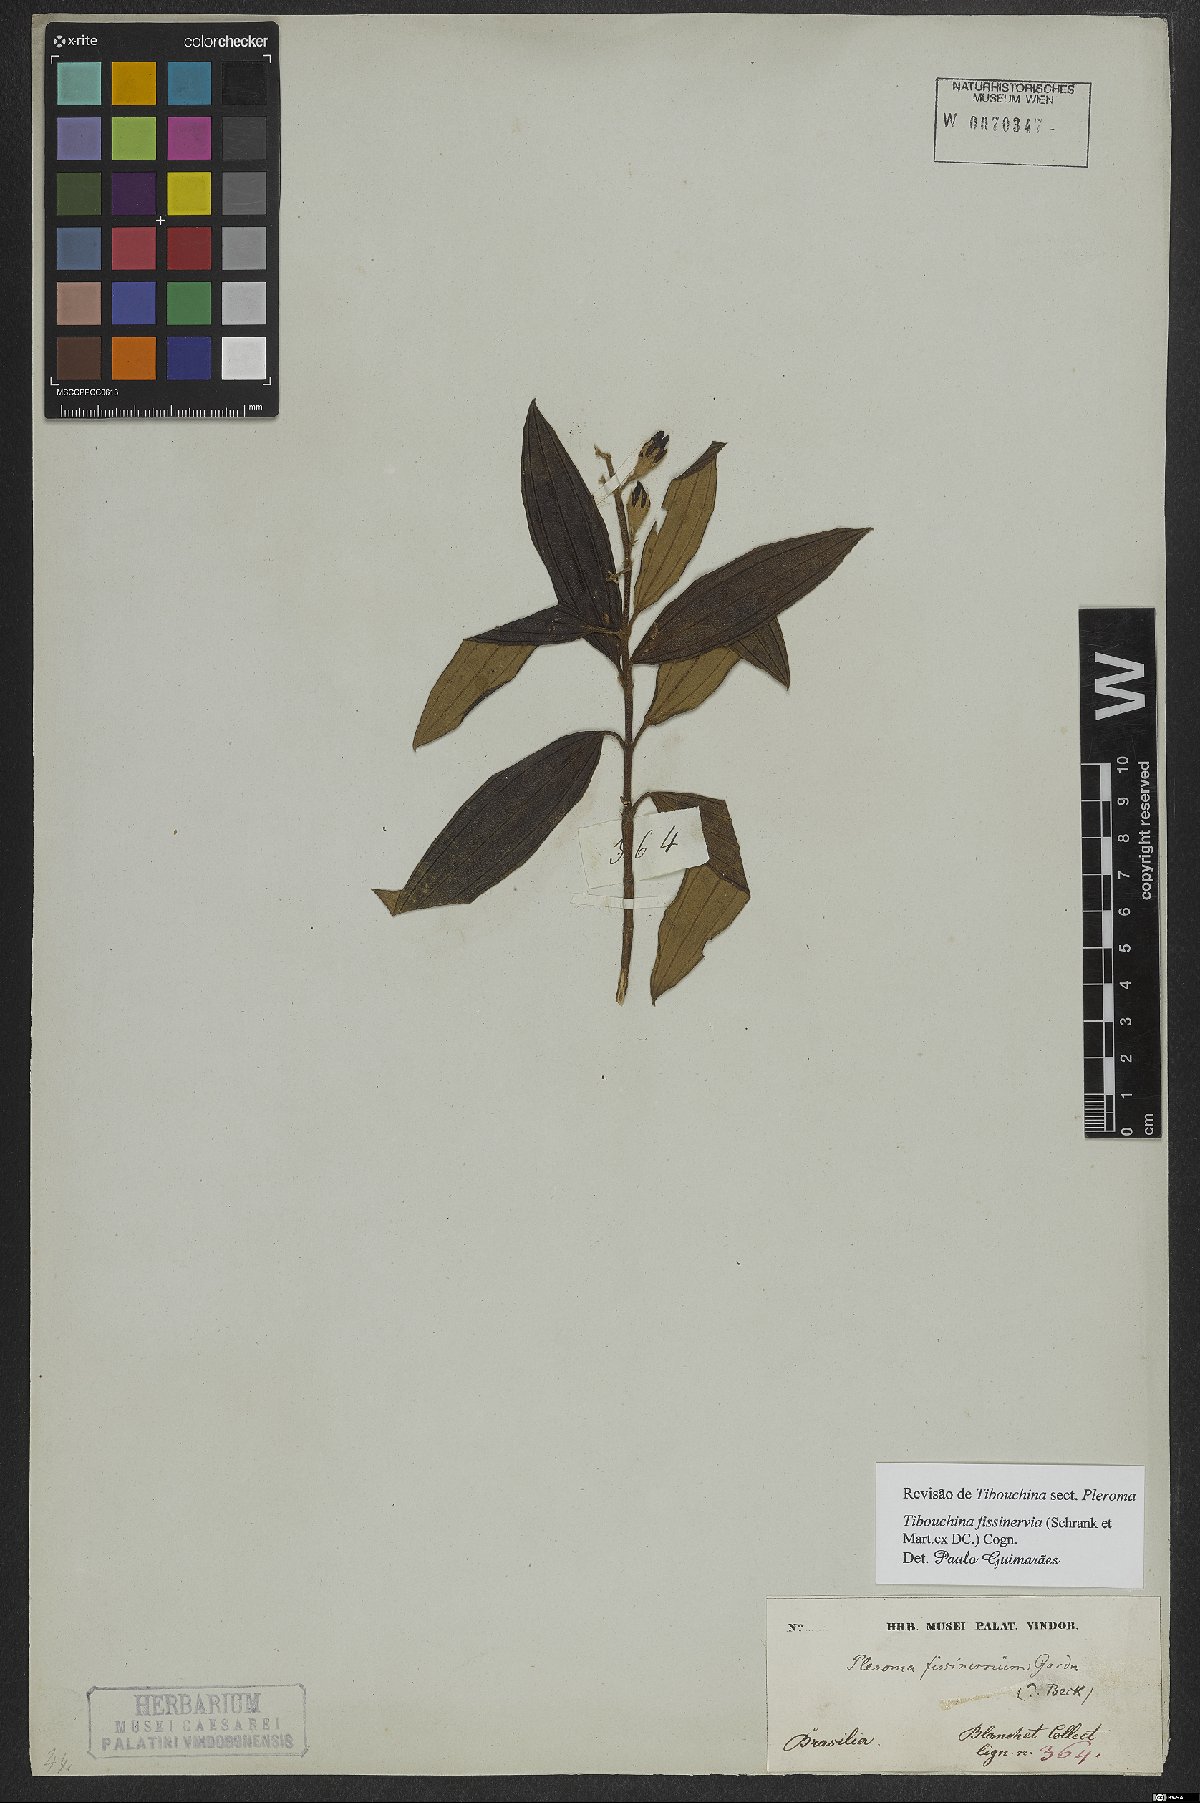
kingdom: Plantae
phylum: Tracheophyta
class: Magnoliopsida
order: Myrtales
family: Melastomataceae
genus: Pleroma
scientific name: Pleroma fissinervium
